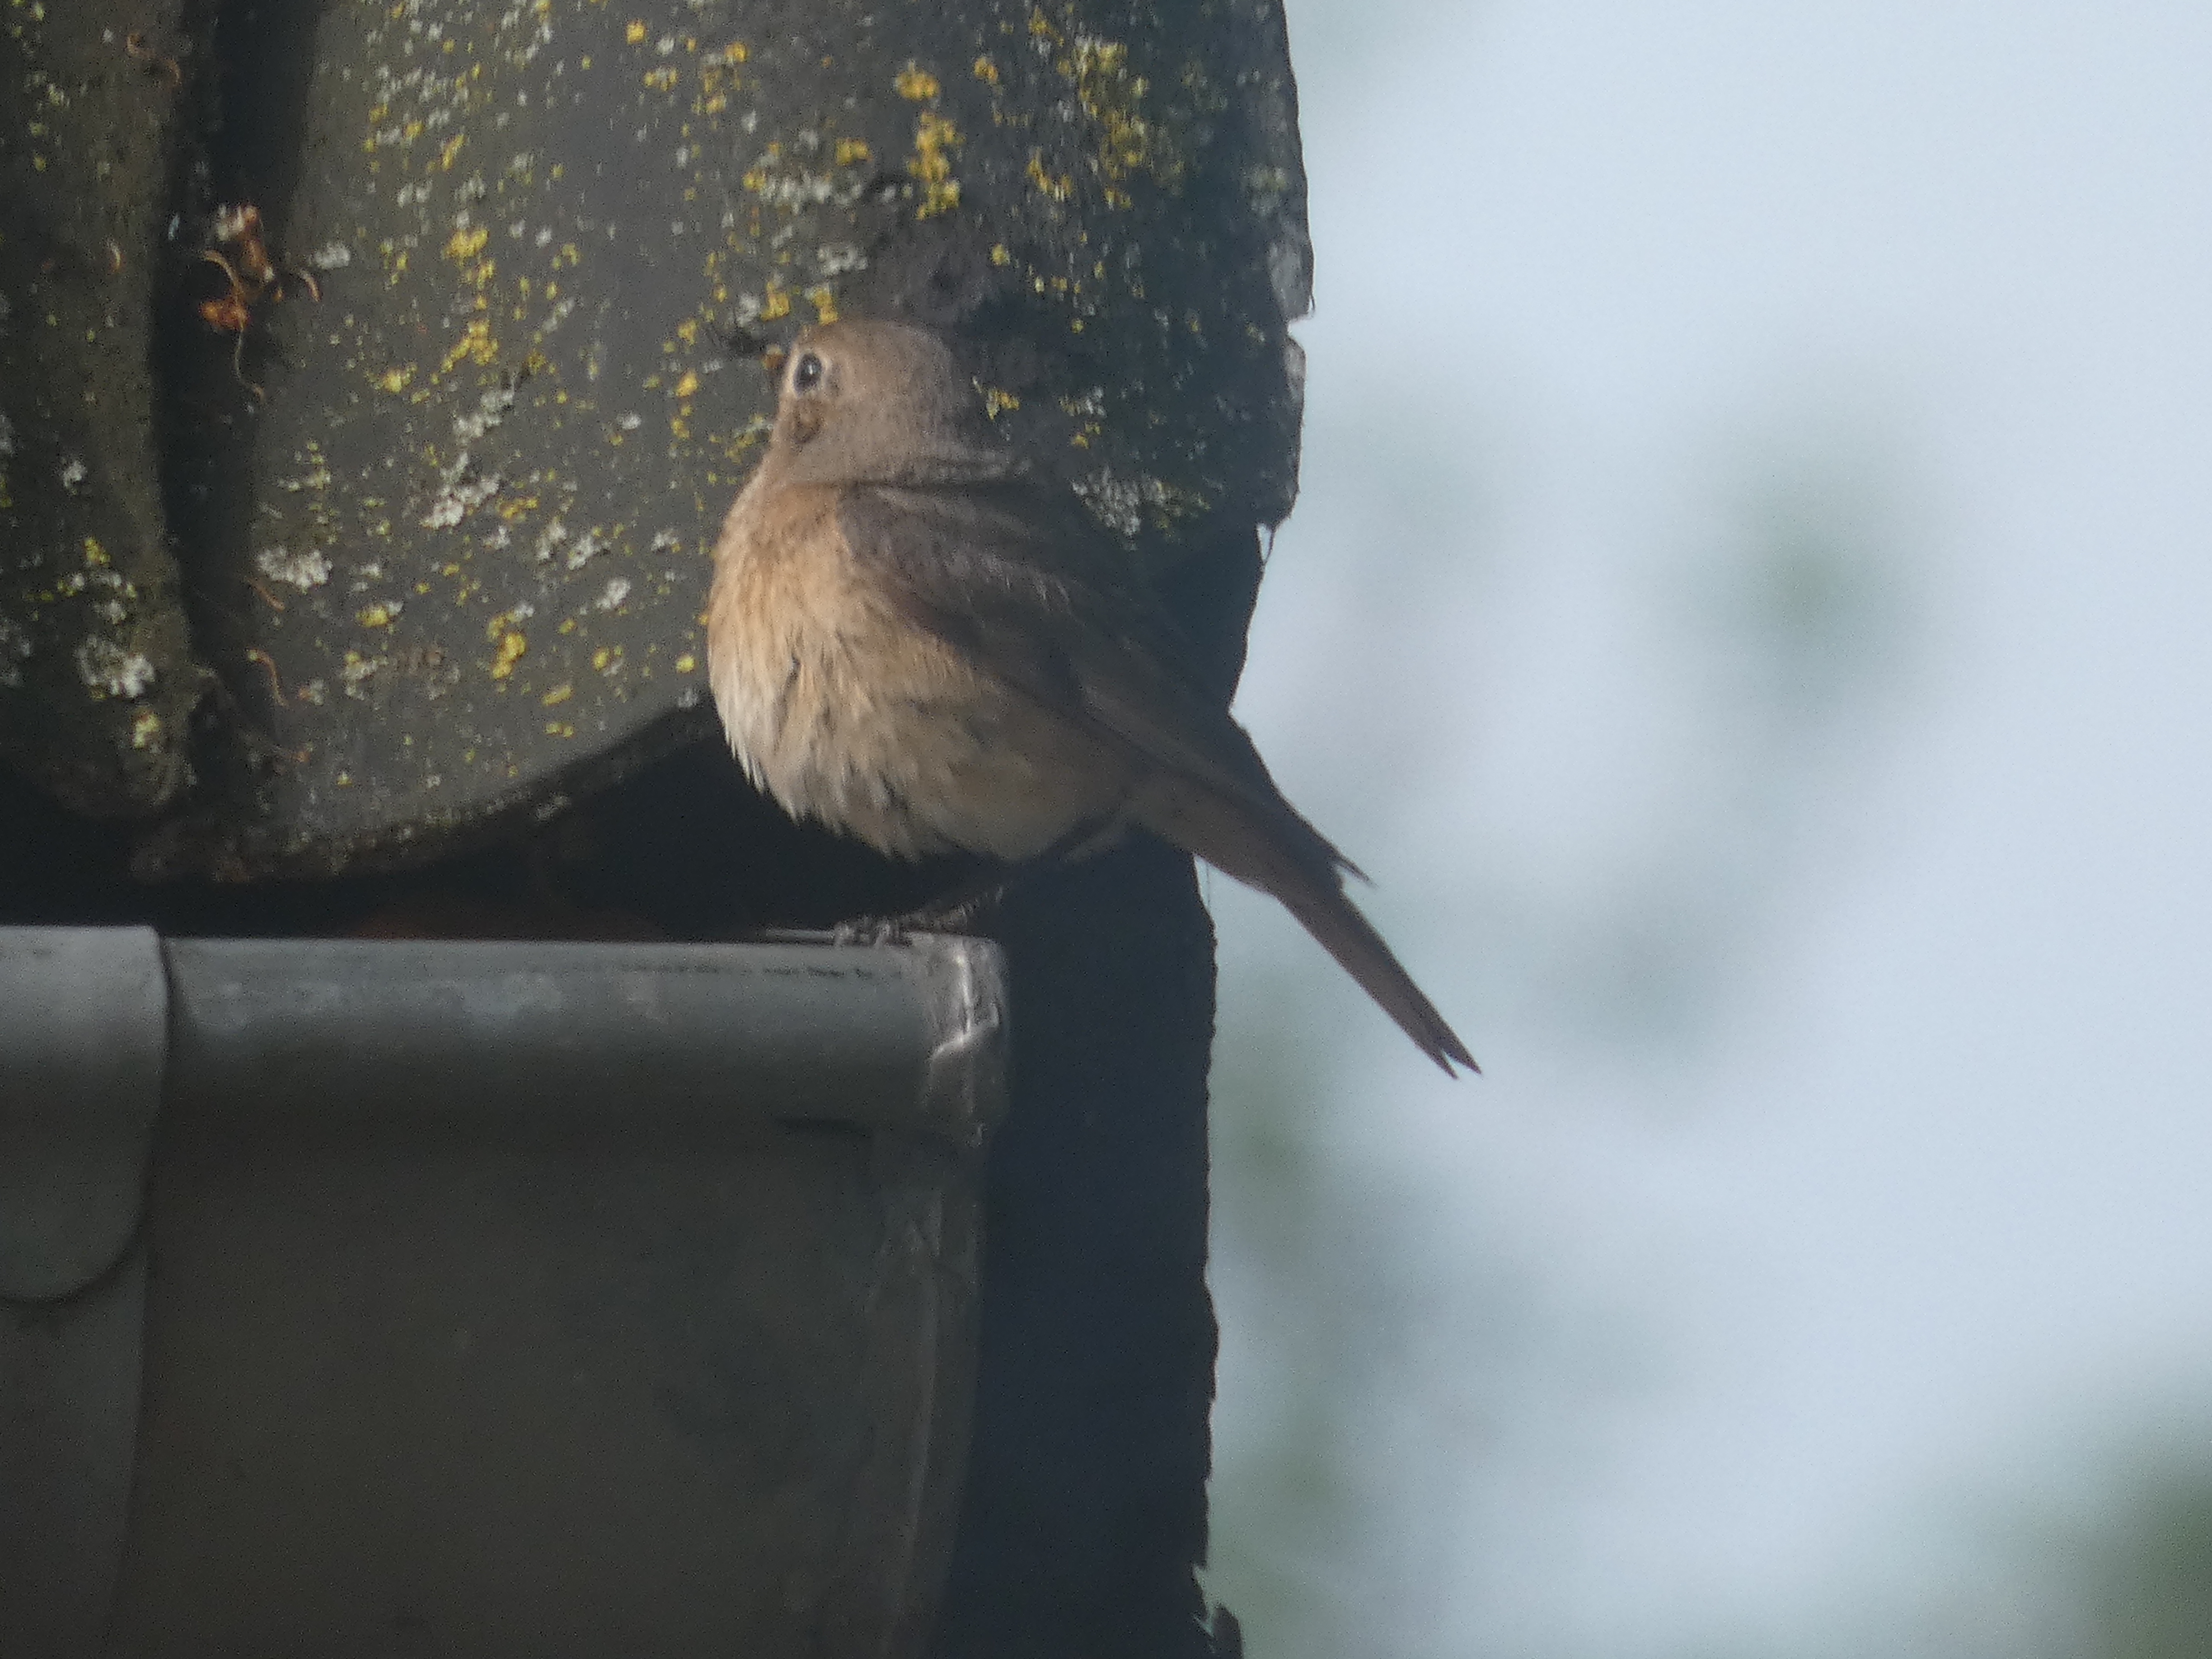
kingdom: Animalia
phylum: Chordata
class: Aves
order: Passeriformes
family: Muscicapidae
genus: Phoenicurus
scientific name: Phoenicurus phoenicurus
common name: Rødstjert
